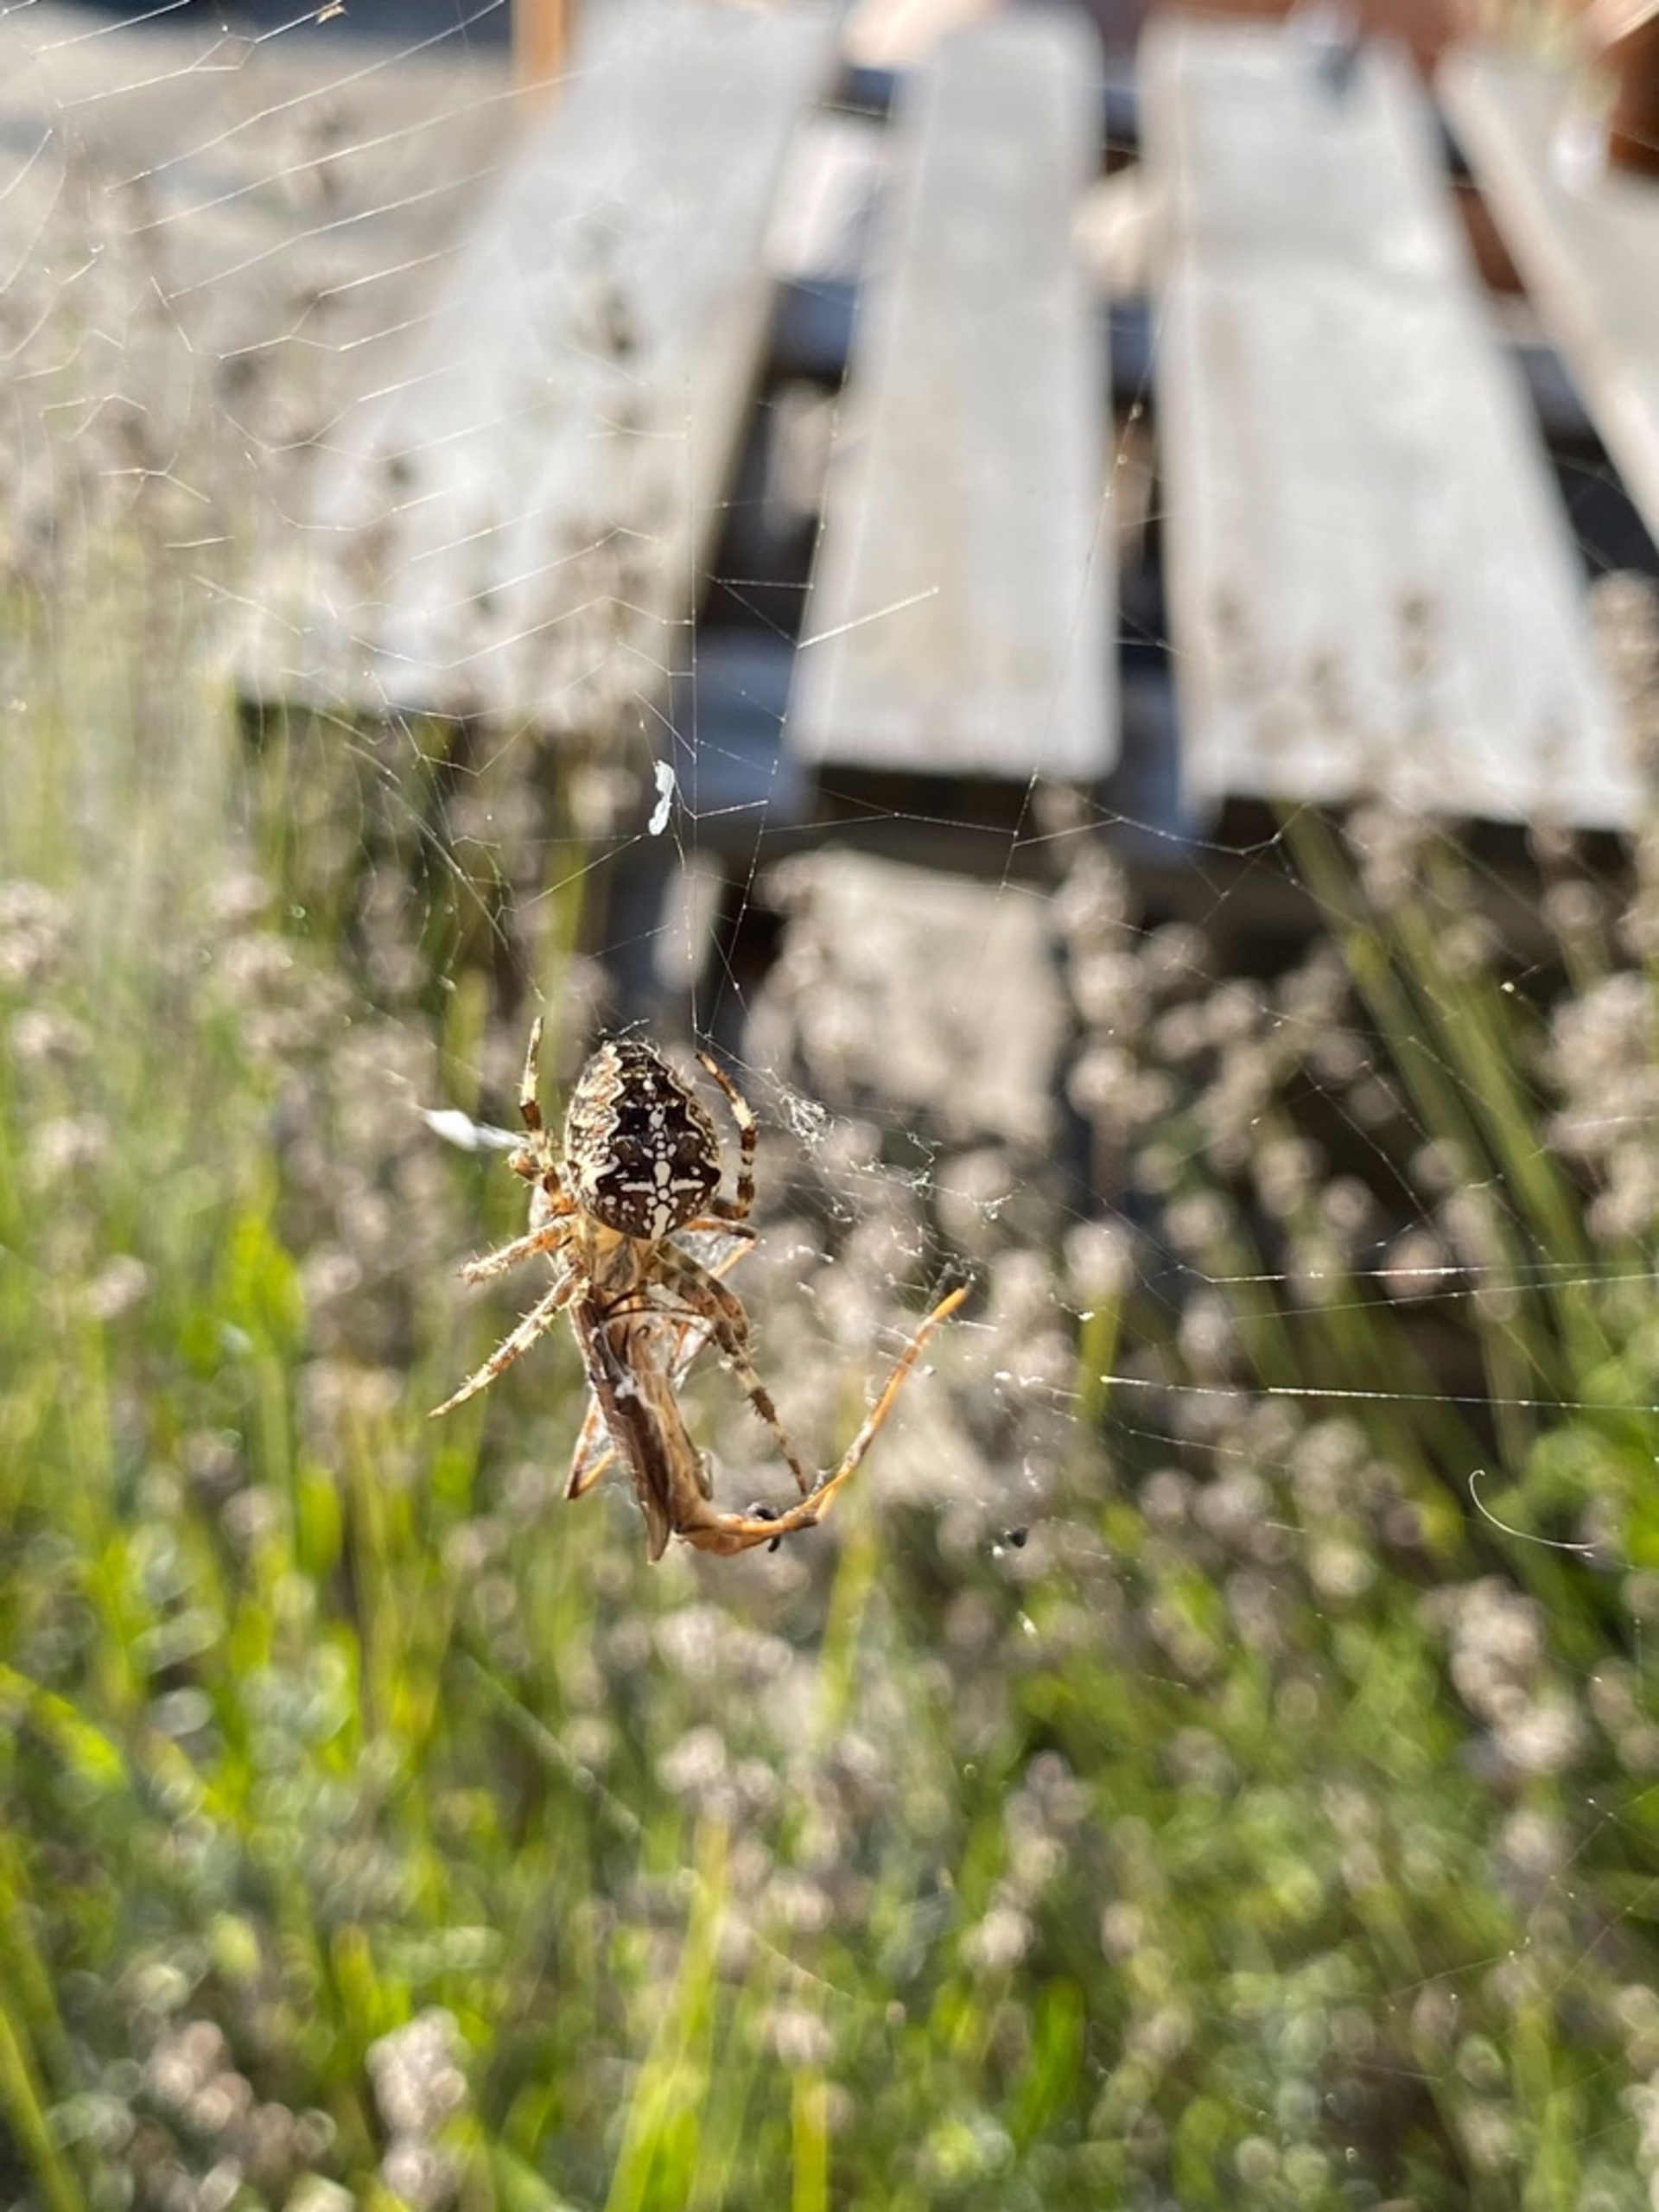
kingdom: Animalia
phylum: Arthropoda
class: Arachnida
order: Araneae
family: Araneidae
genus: Araneus
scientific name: Araneus diadematus
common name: Korsedderkop
